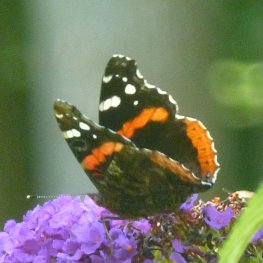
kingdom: Animalia
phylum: Arthropoda
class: Insecta
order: Lepidoptera
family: Nymphalidae
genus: Vanessa
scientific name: Vanessa atalanta
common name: Red Admiral
